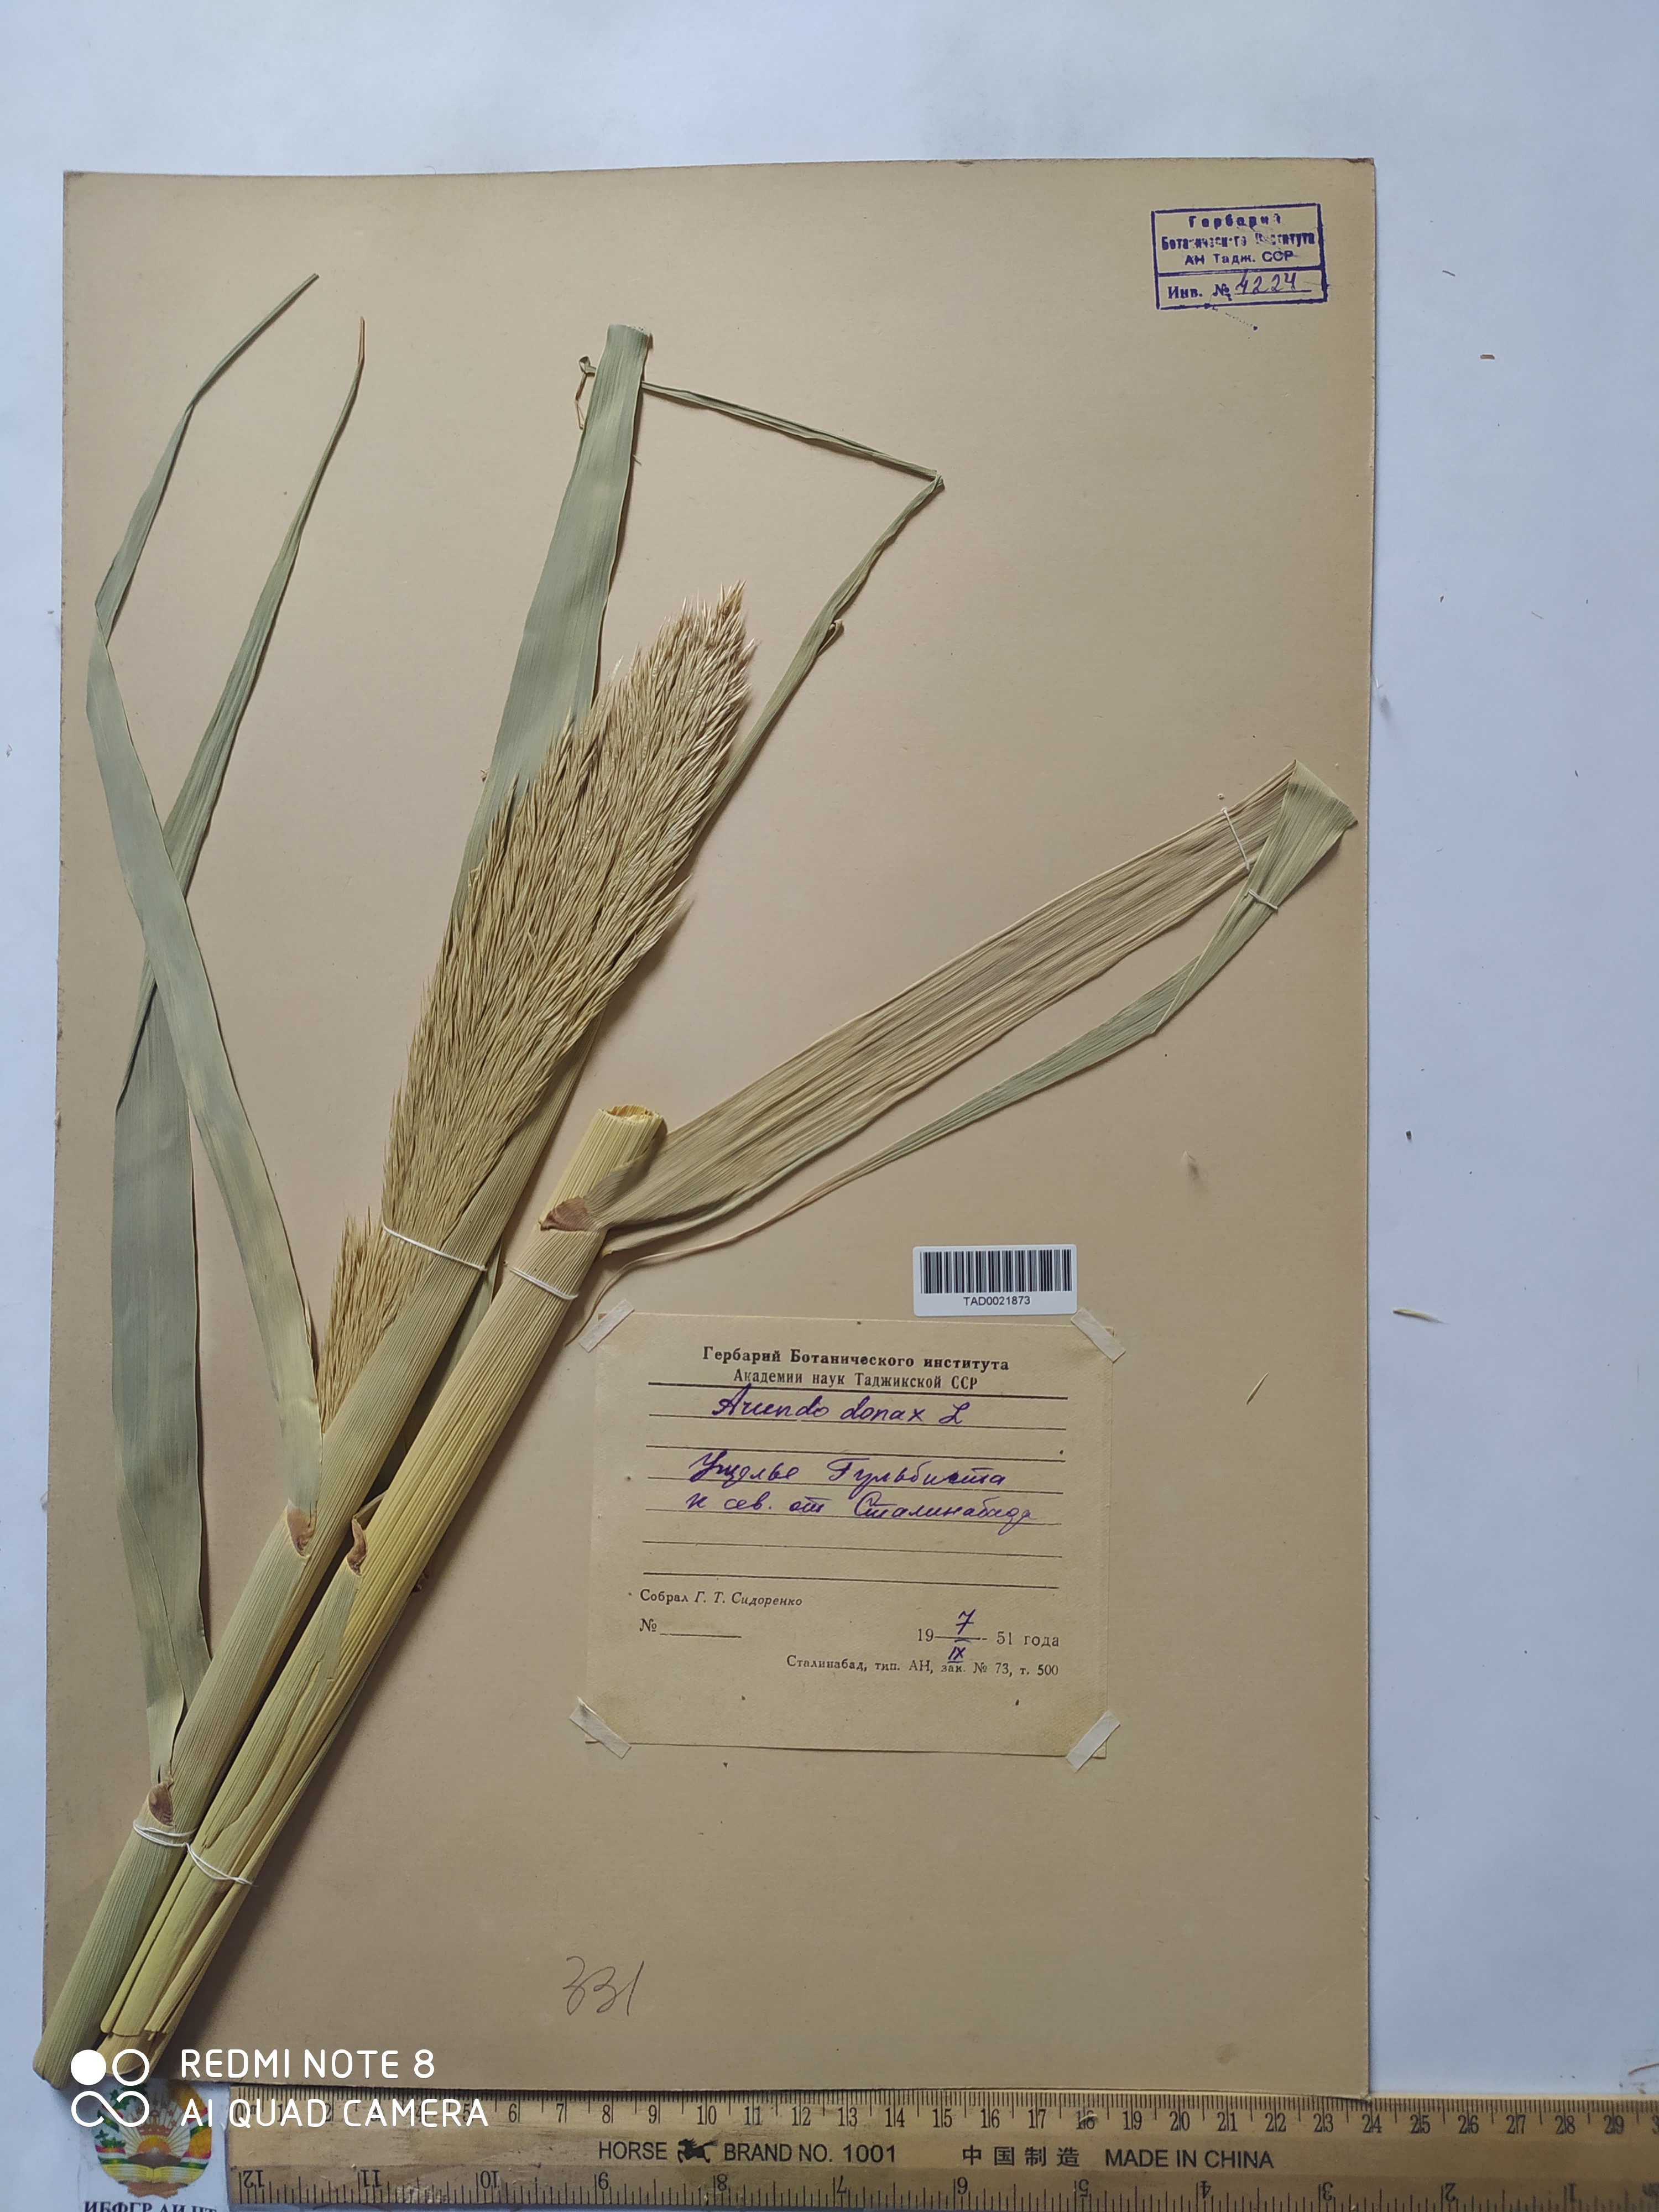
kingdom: Plantae
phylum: Tracheophyta
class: Liliopsida
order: Poales
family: Poaceae
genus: Arundo
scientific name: Arundo donax
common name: Giant reed
